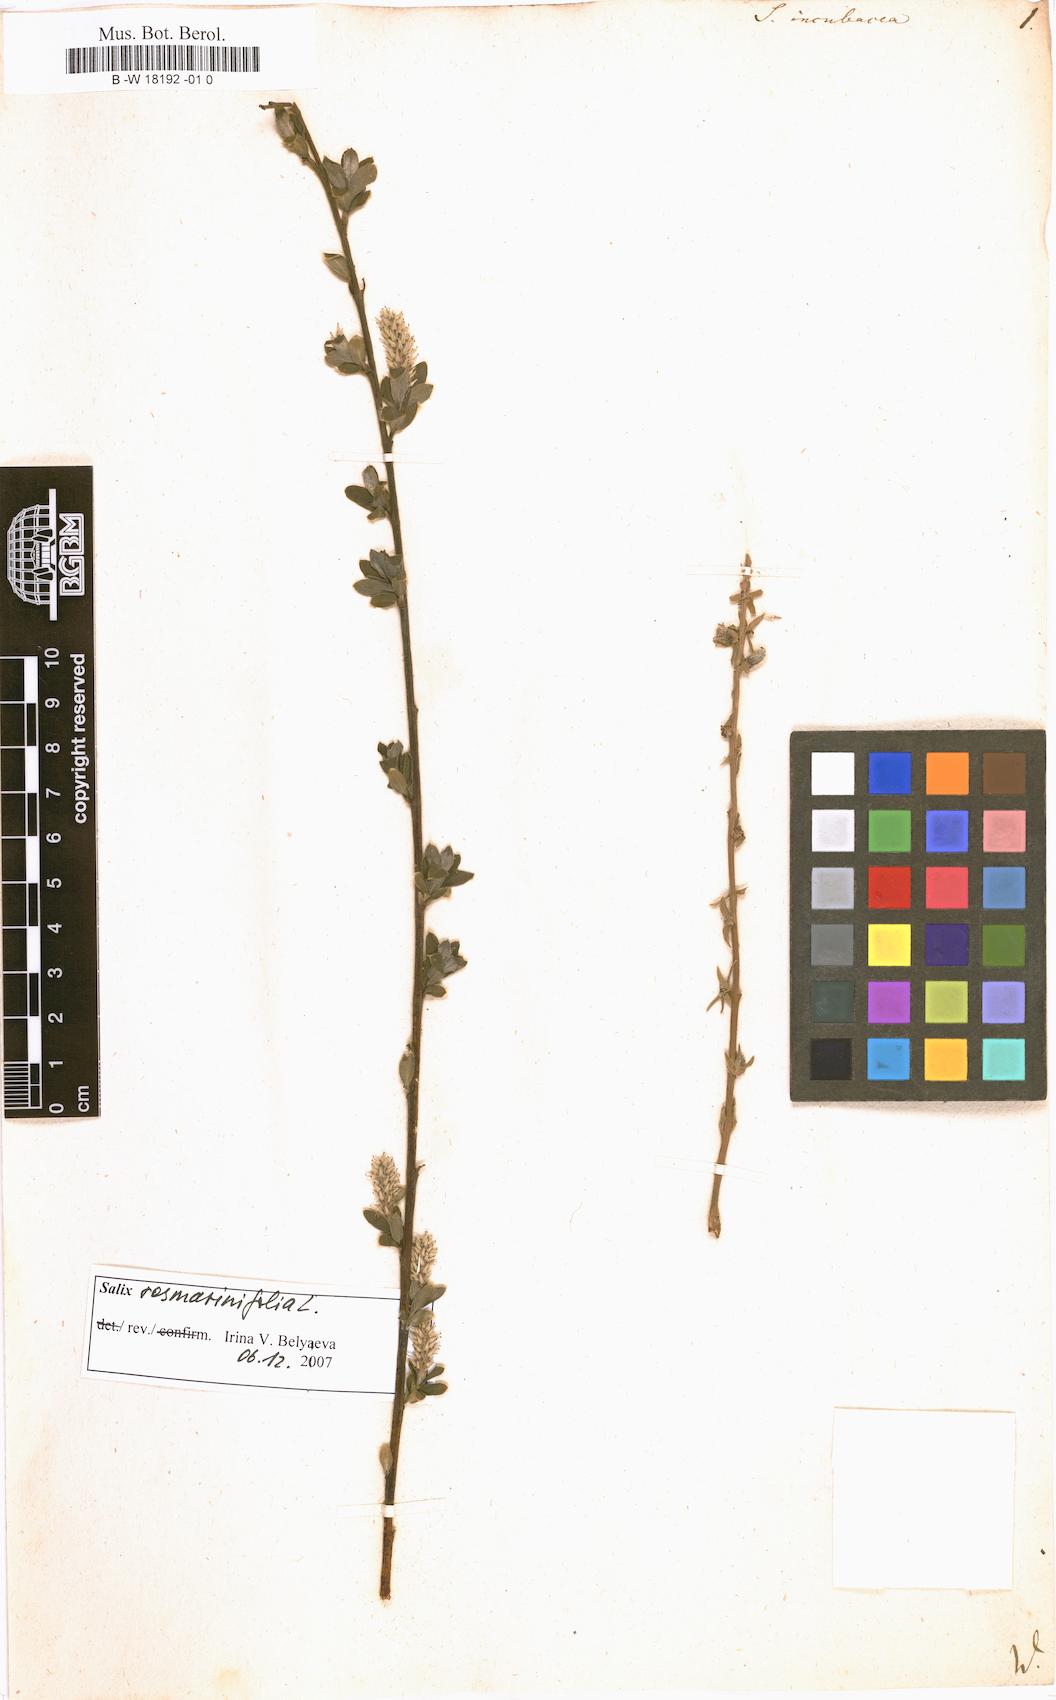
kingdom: Plantae
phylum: Tracheophyta
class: Magnoliopsida
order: Malpighiales
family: Salicaceae
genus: Salix
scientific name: Salix incubacea
